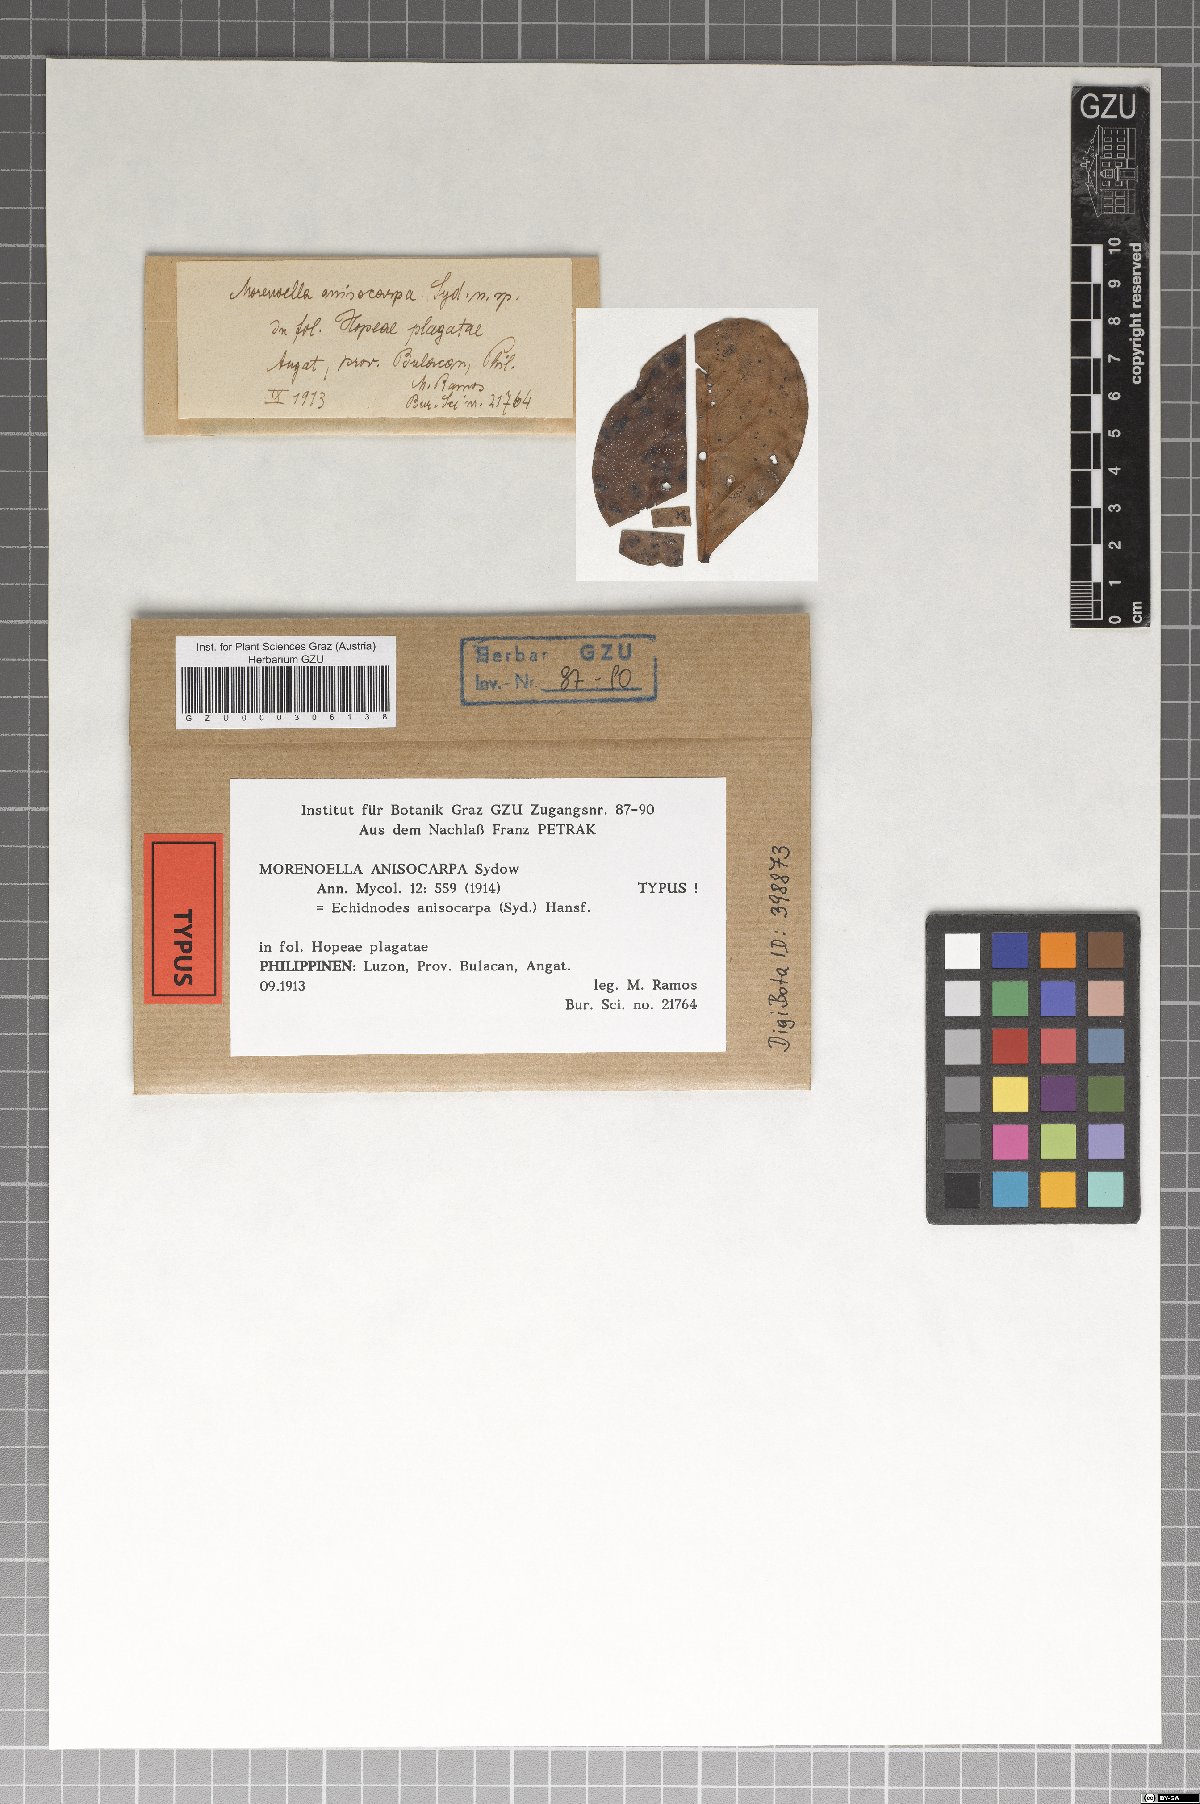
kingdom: Fungi
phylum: Ascomycota
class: Dothideomycetes
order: Asterinales
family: Asterinaceae
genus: Echidnodes
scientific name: Echidnodes anisocarpa
